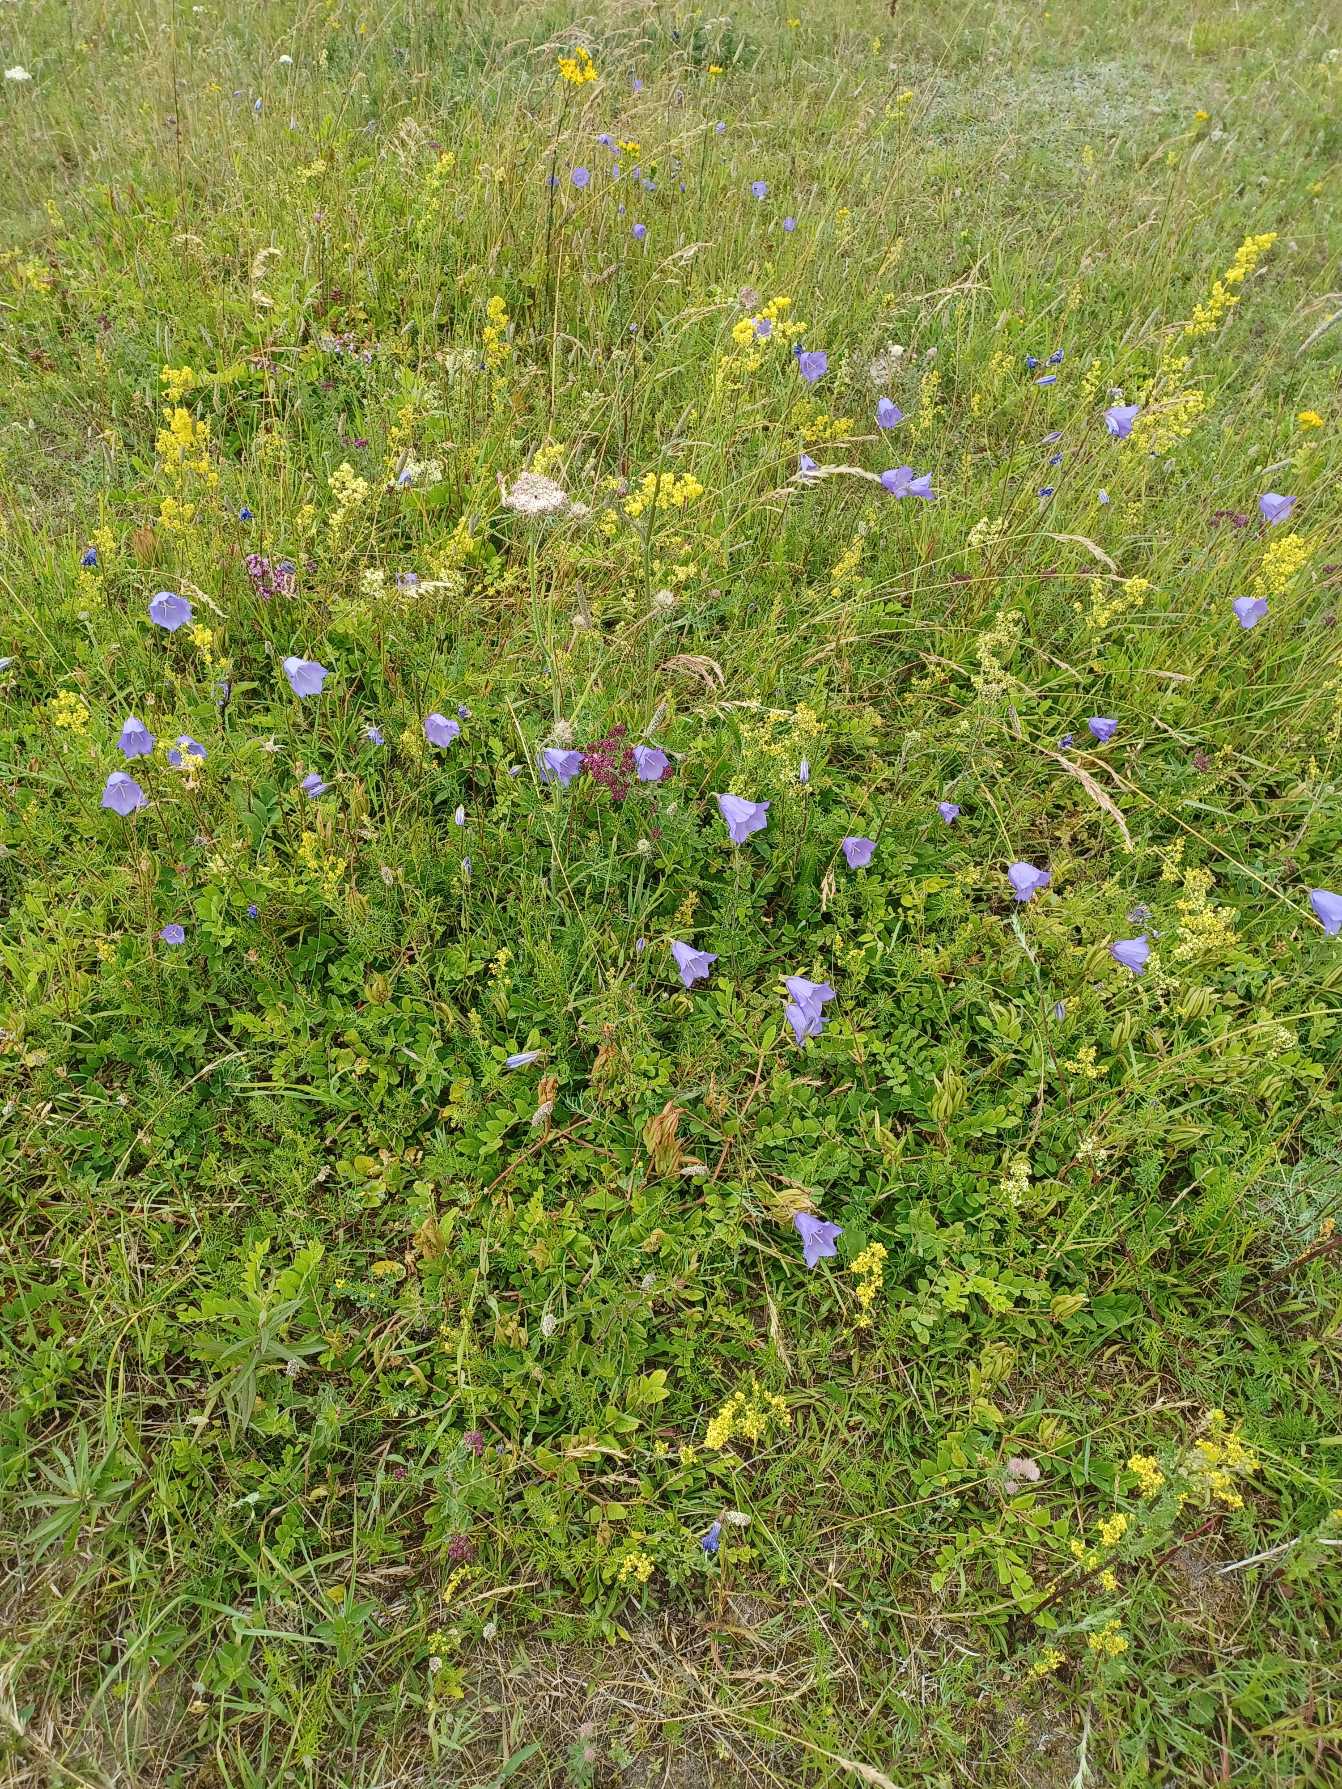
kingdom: Plantae
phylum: Tracheophyta
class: Magnoliopsida
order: Asterales
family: Campanulaceae
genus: Campanula
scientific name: Campanula persicifolia
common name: Smalbladet klokke
